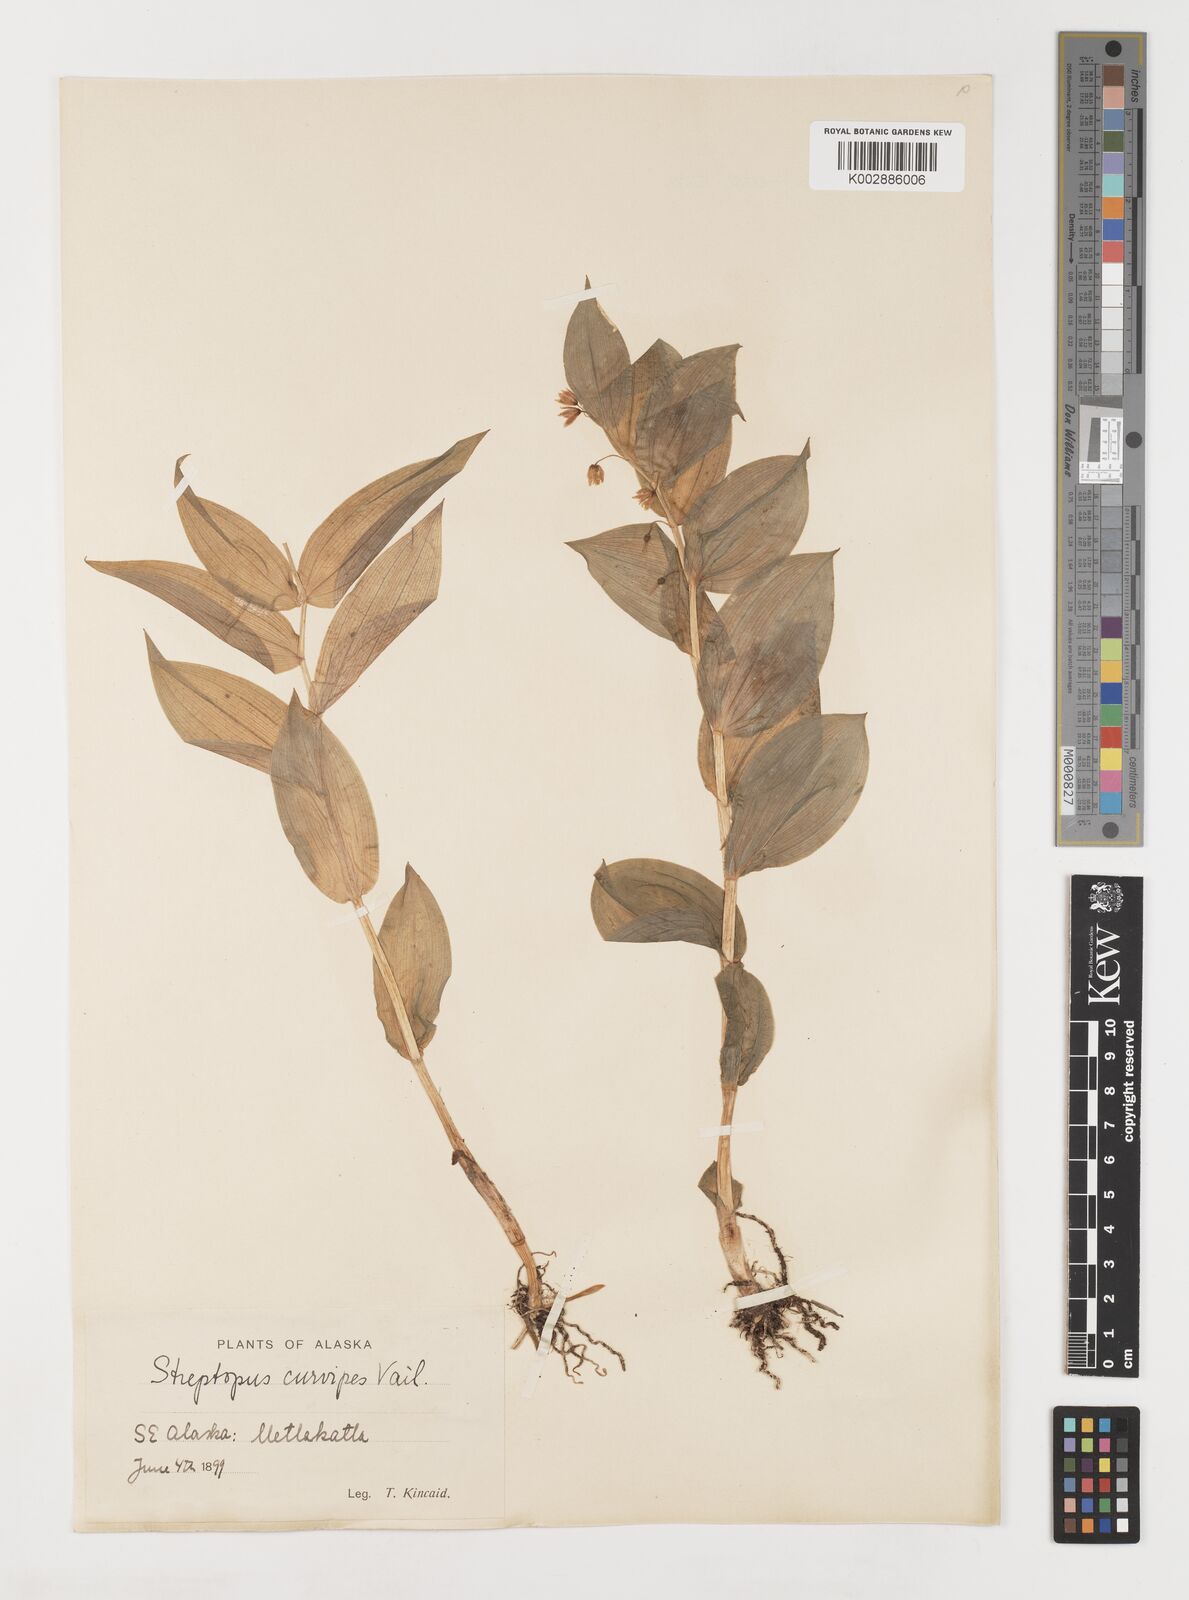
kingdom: Plantae
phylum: Tracheophyta
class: Liliopsida
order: Liliales
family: Liliaceae
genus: Streptopus
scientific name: Streptopus lanceolatus
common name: Rose mandarin
